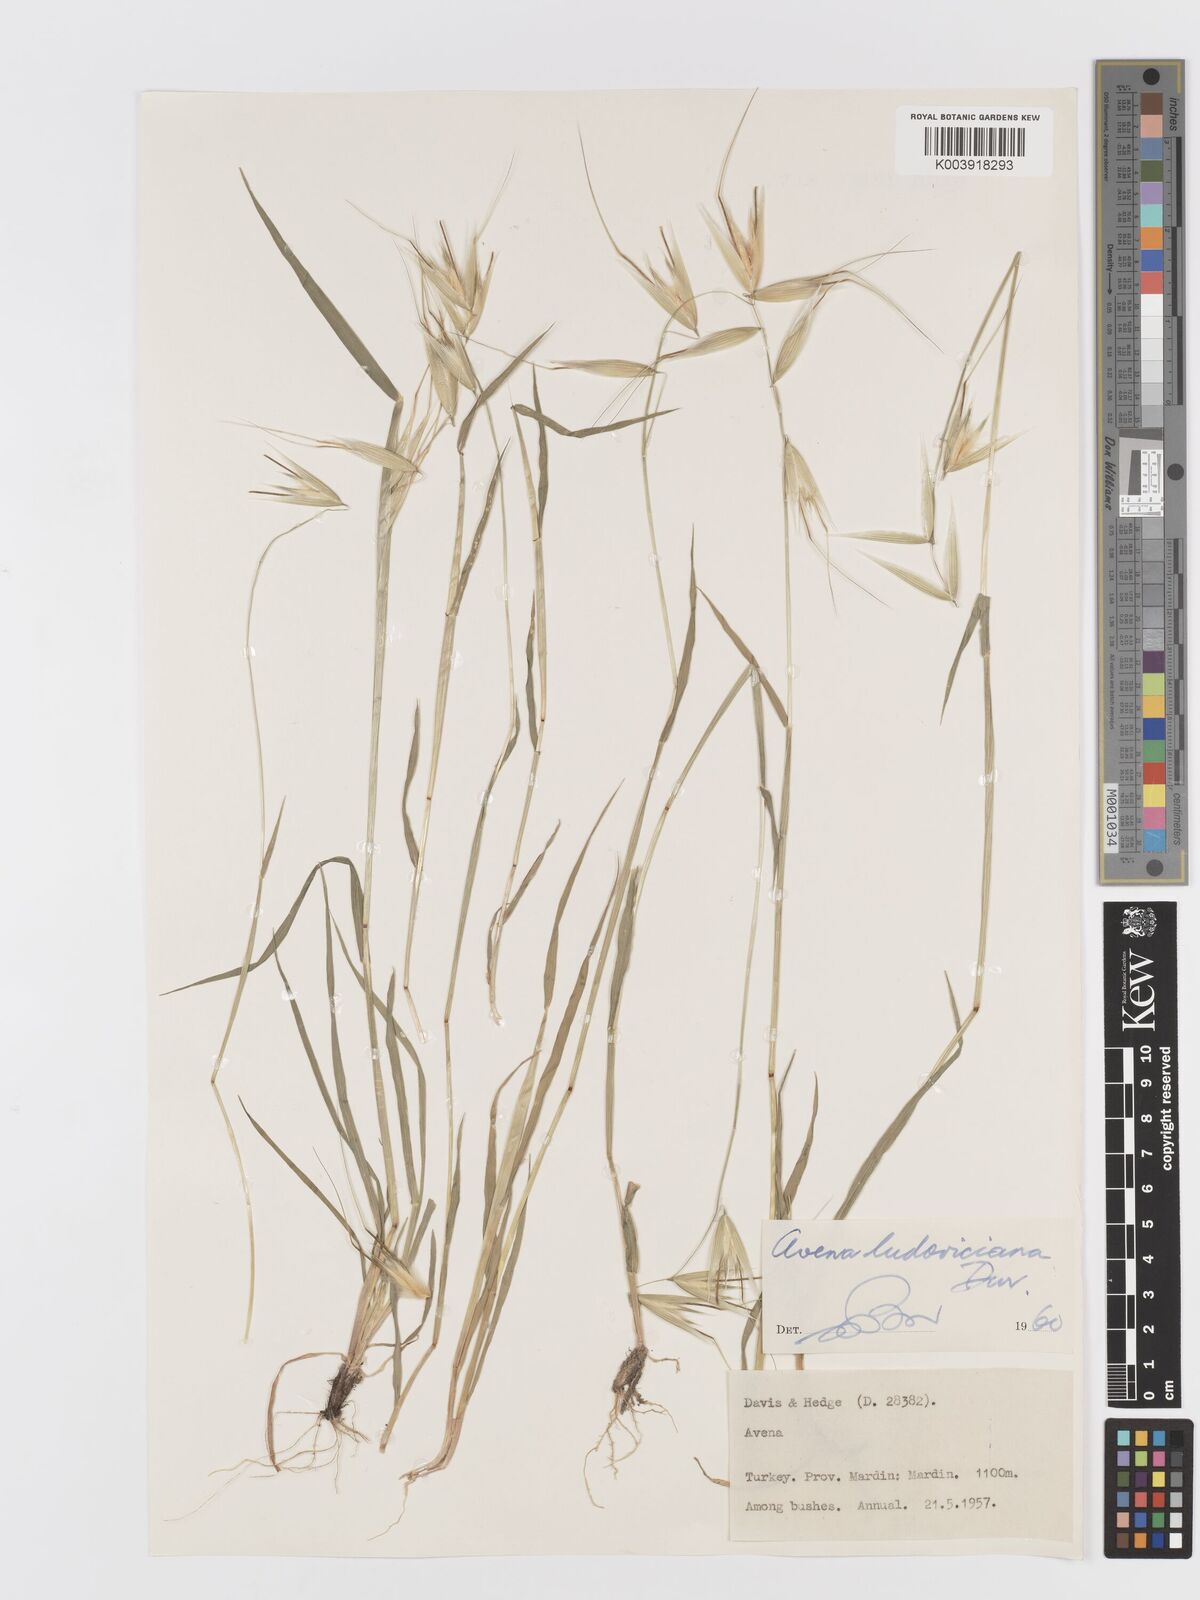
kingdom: Plantae
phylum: Tracheophyta
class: Liliopsida
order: Poales
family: Poaceae
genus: Avena
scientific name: Avena sterilis
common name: Animated oat
